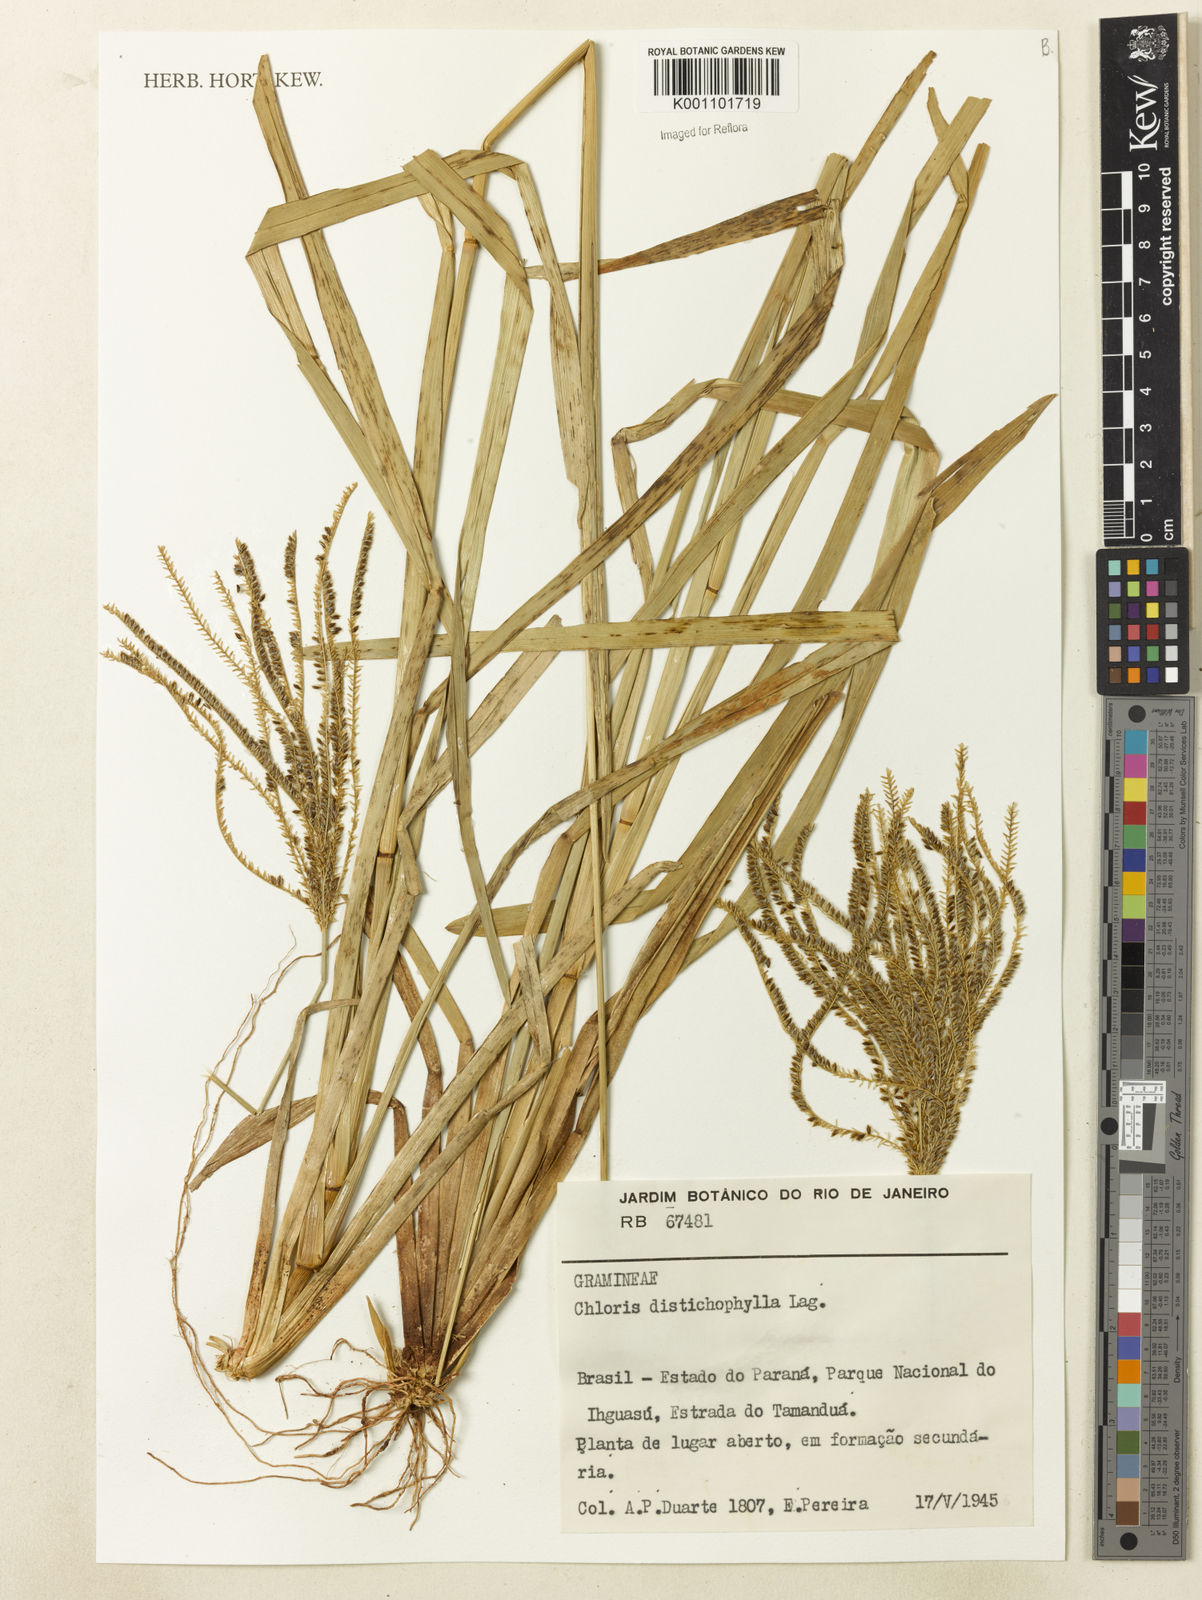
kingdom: Plantae
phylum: Tracheophyta
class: Liliopsida
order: Poales
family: Poaceae
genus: Eustachys
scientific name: Eustachys distichophylla
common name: Weeping fingergrass
